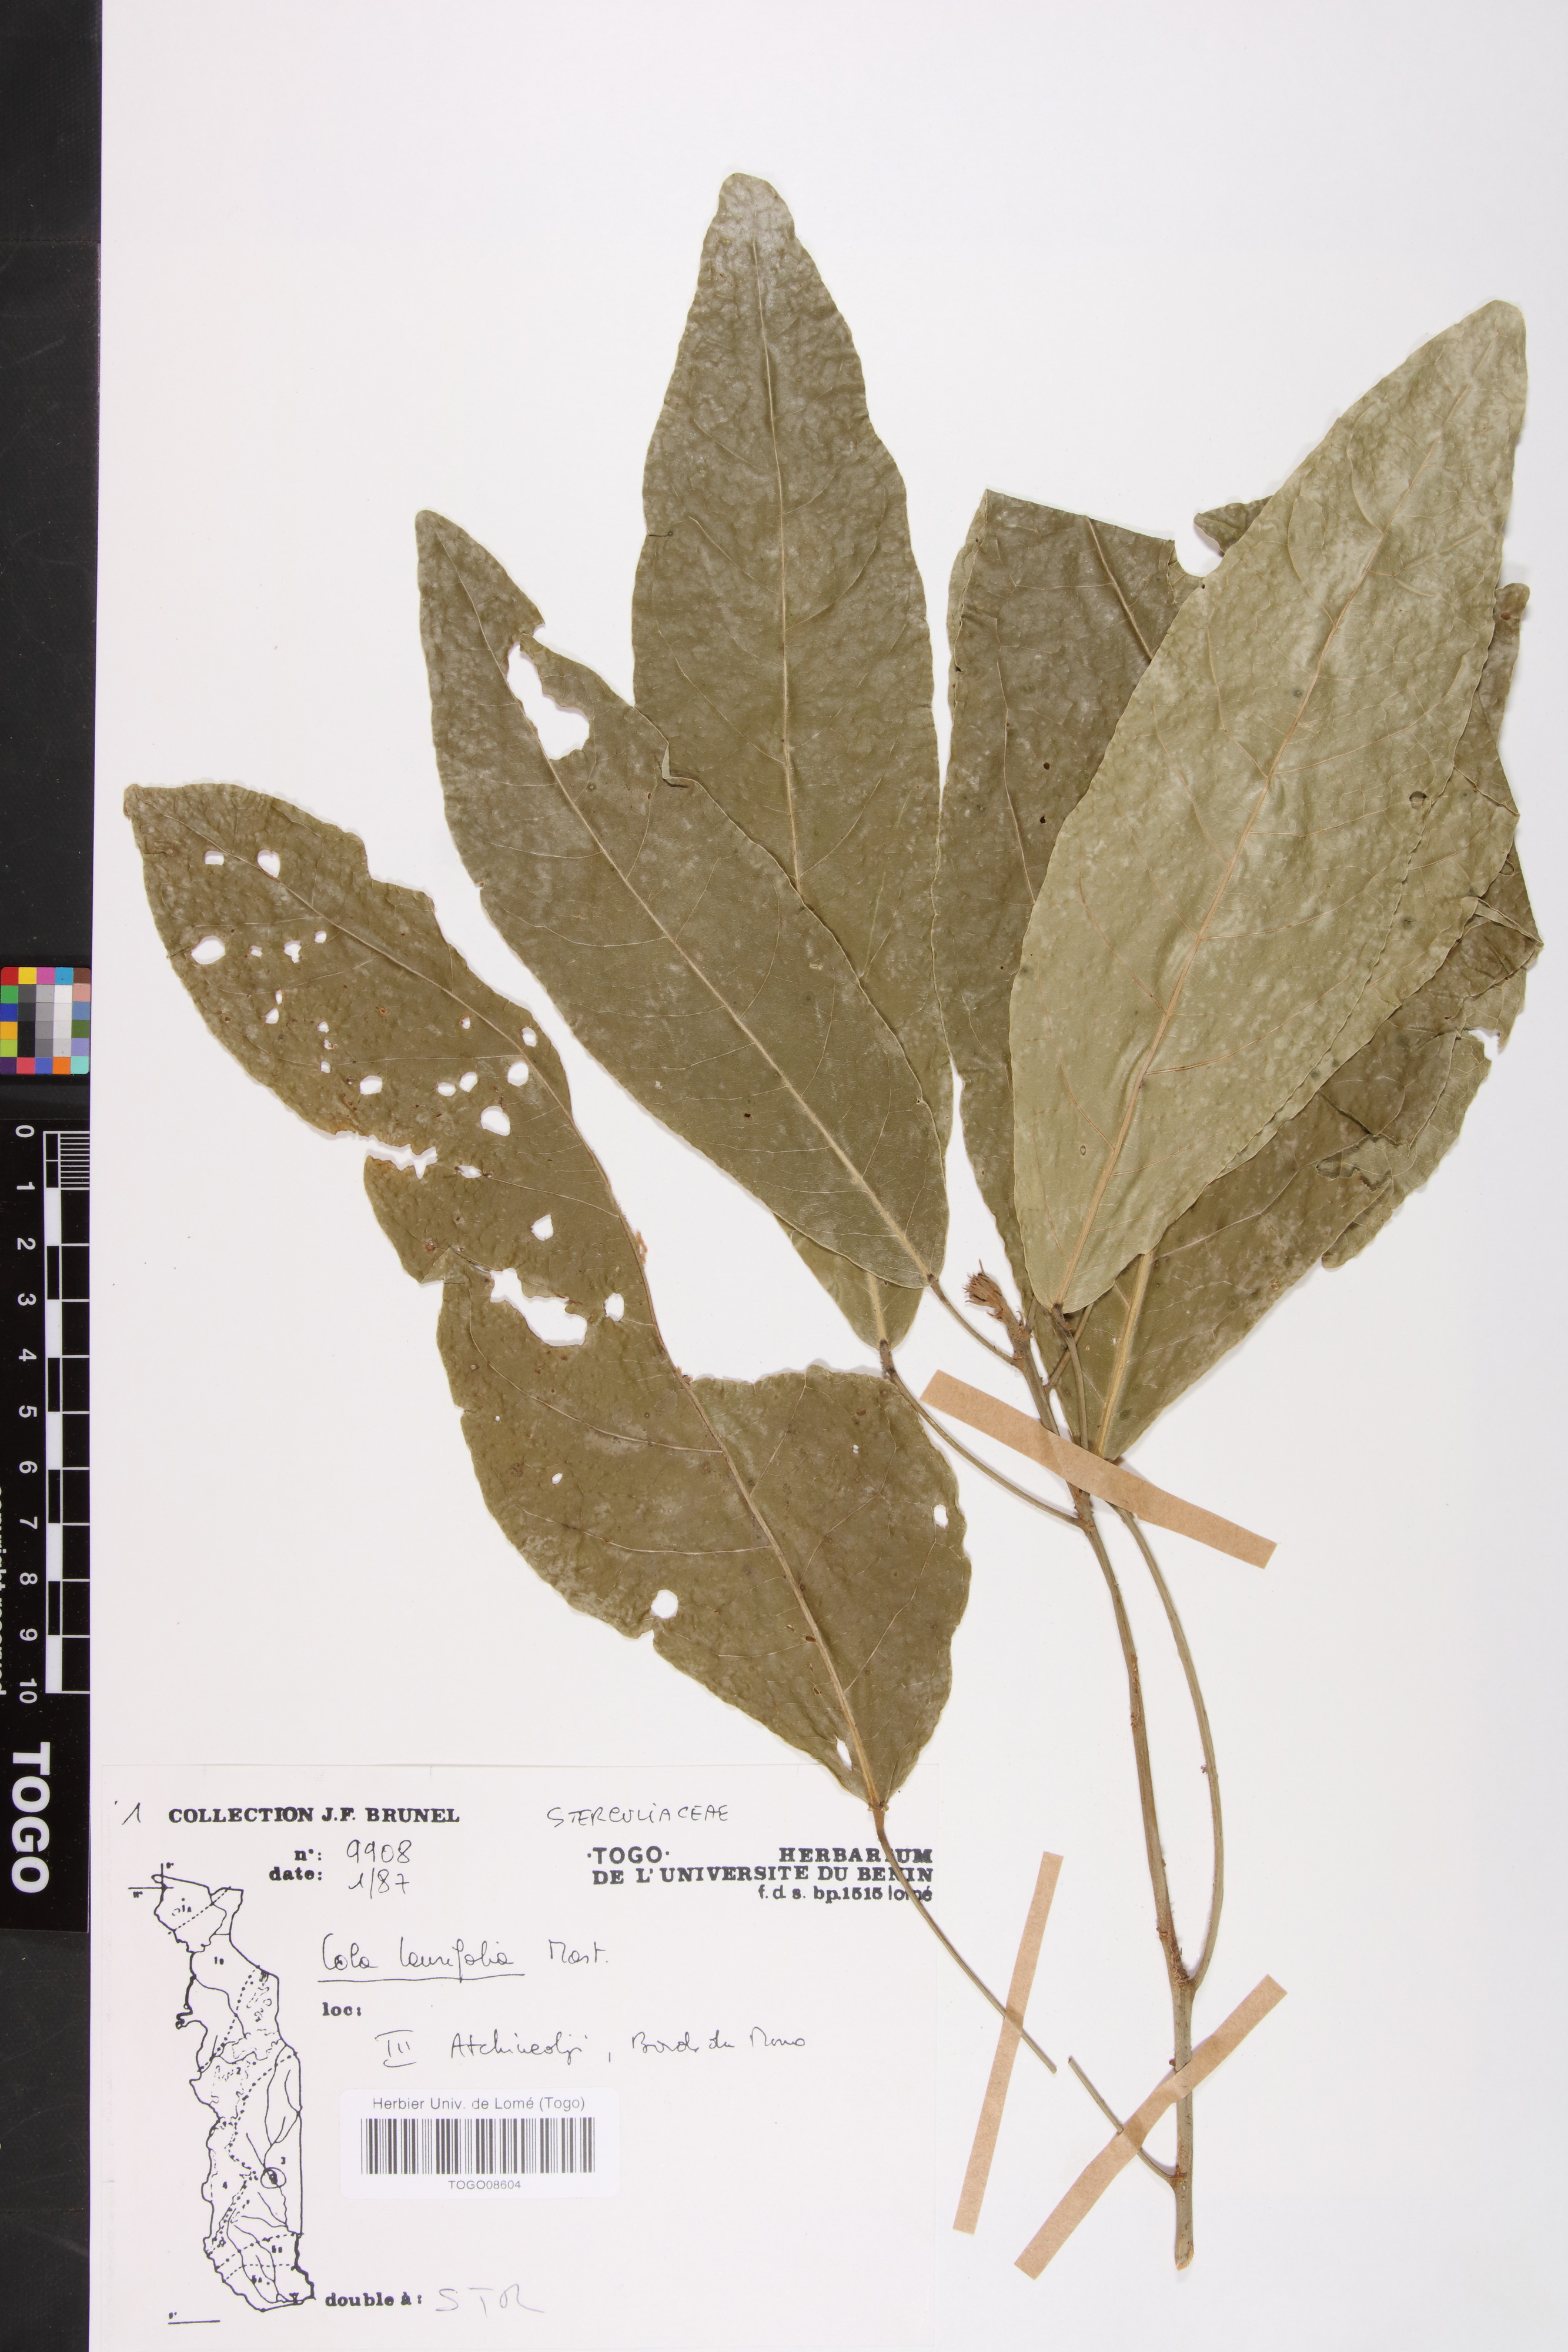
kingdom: Plantae
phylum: Tracheophyta
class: Magnoliopsida
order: Malvales
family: Malvaceae
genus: Cola
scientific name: Cola laurifolia
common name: Laurel-leaved kola
